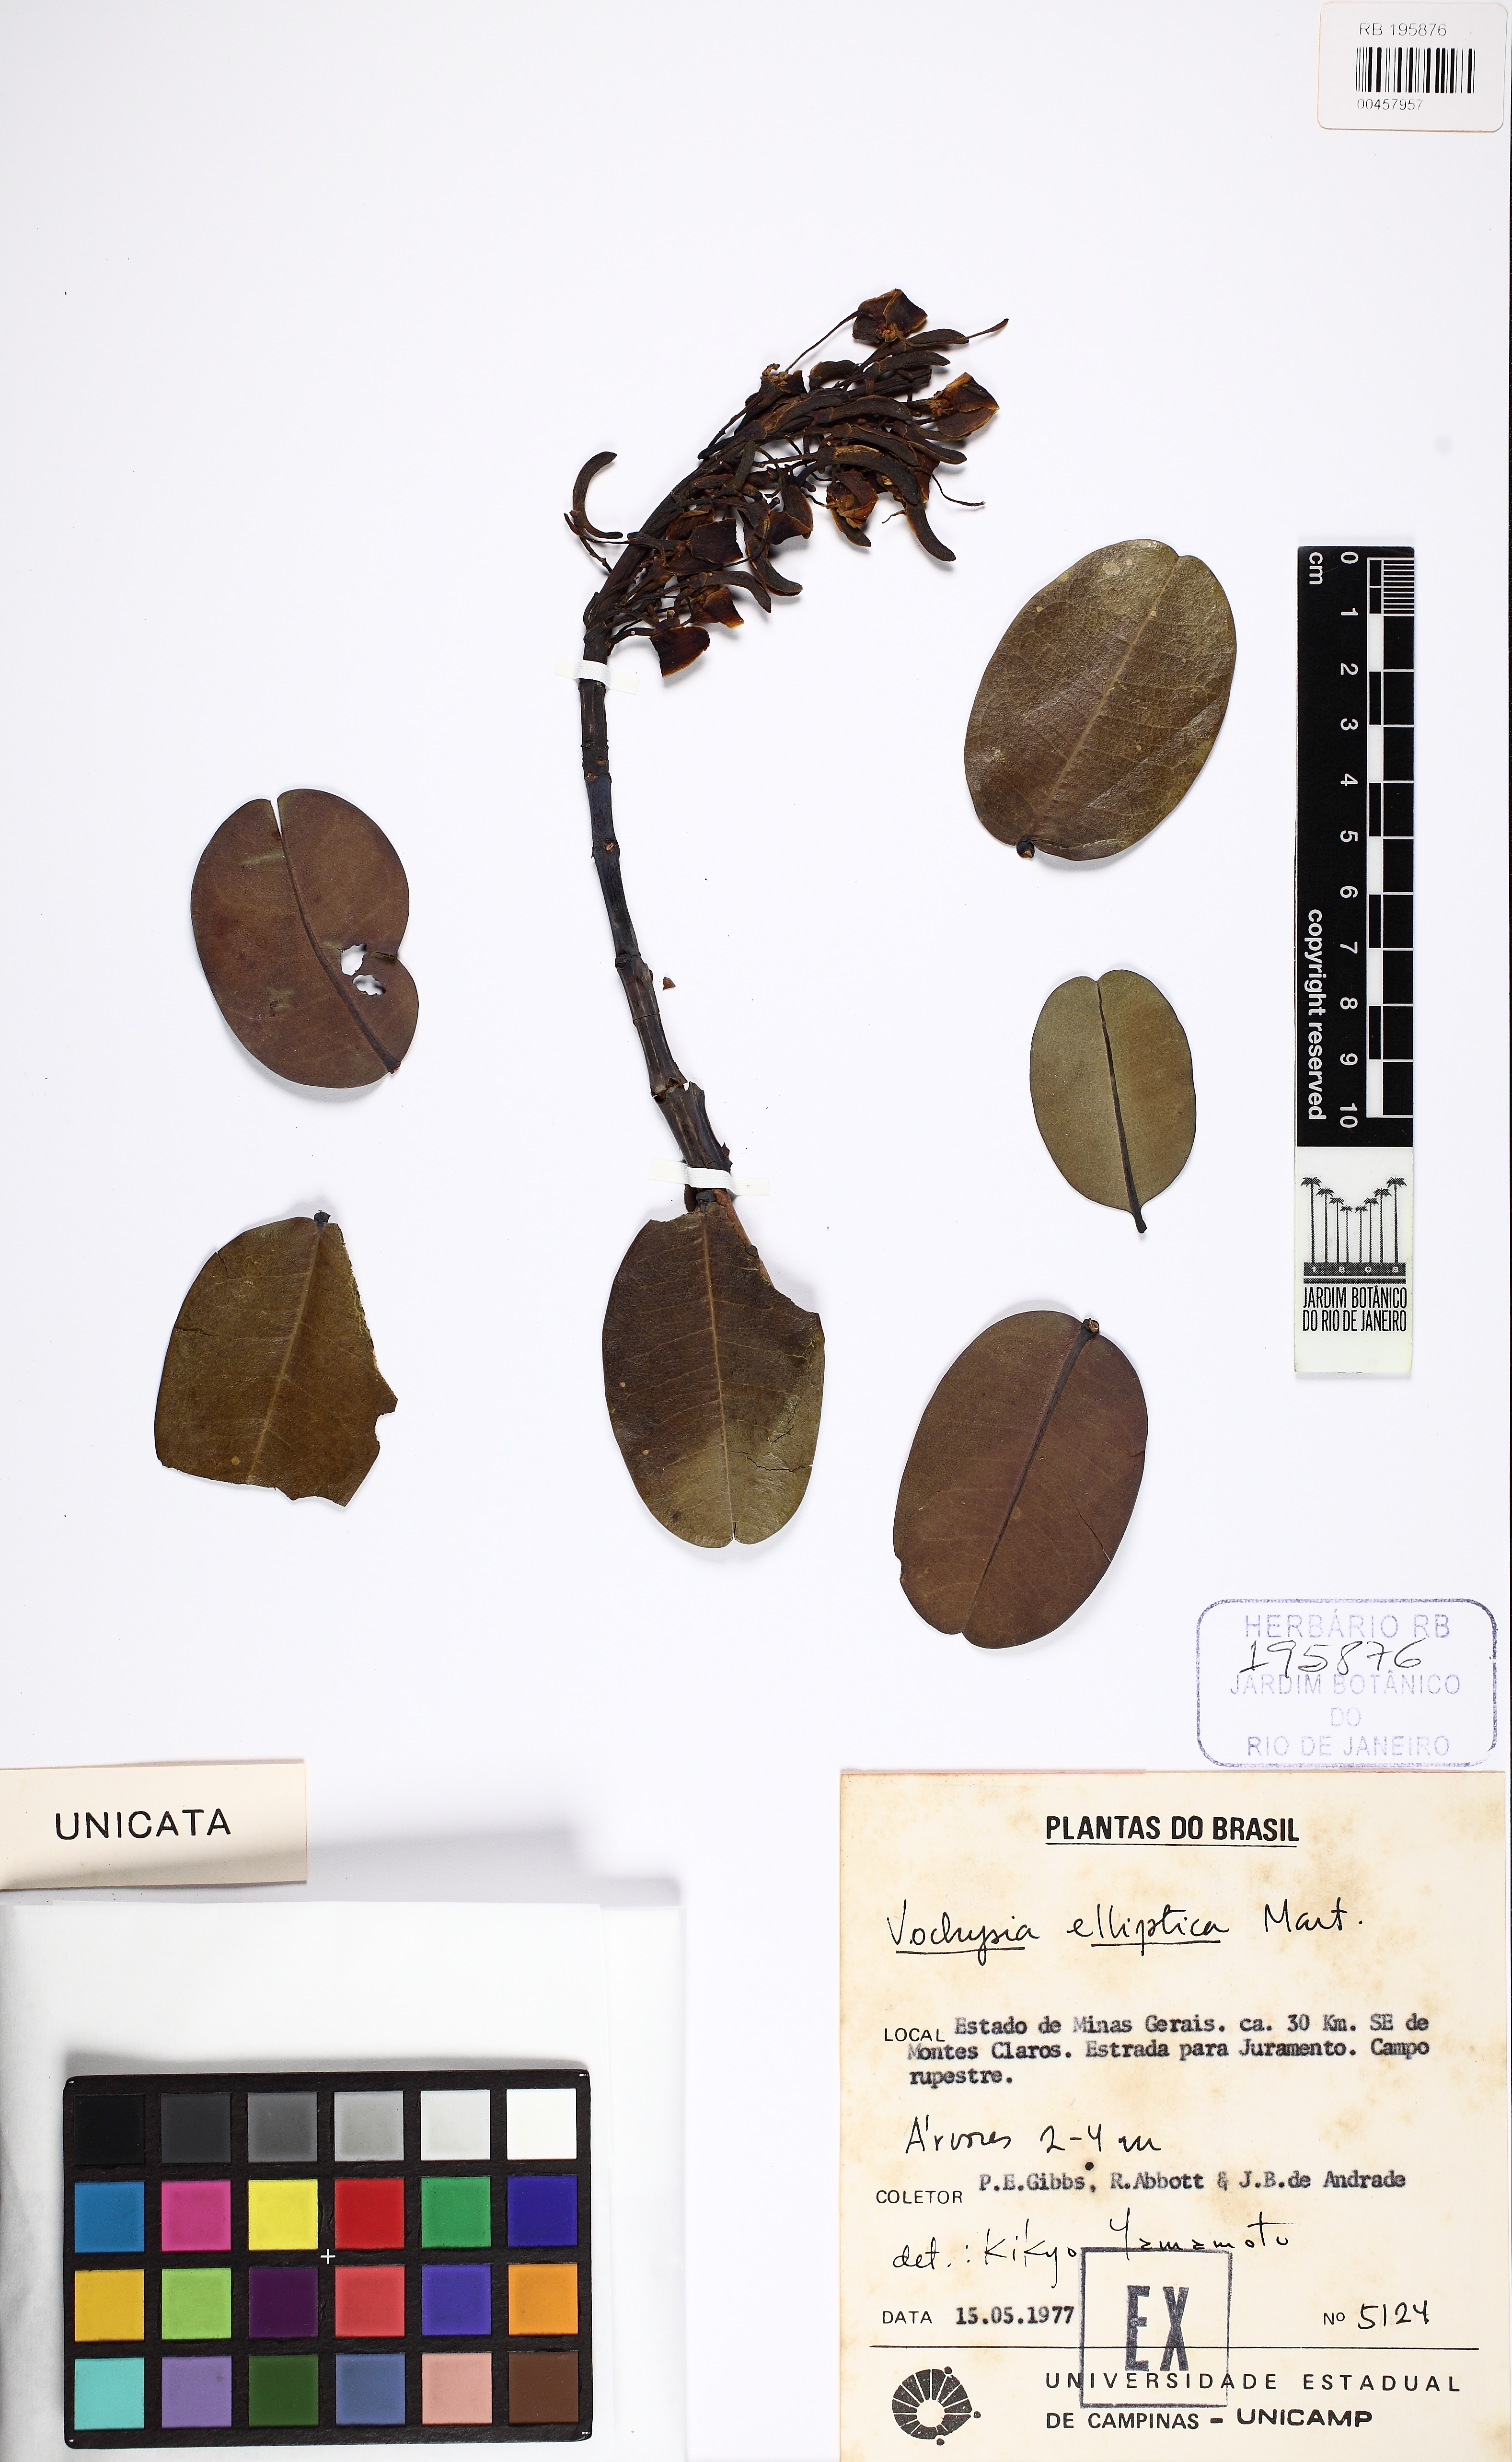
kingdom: Plantae
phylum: Tracheophyta
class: Magnoliopsida
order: Myrtales
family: Vochysiaceae
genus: Vochysia
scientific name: Vochysia elliptica
